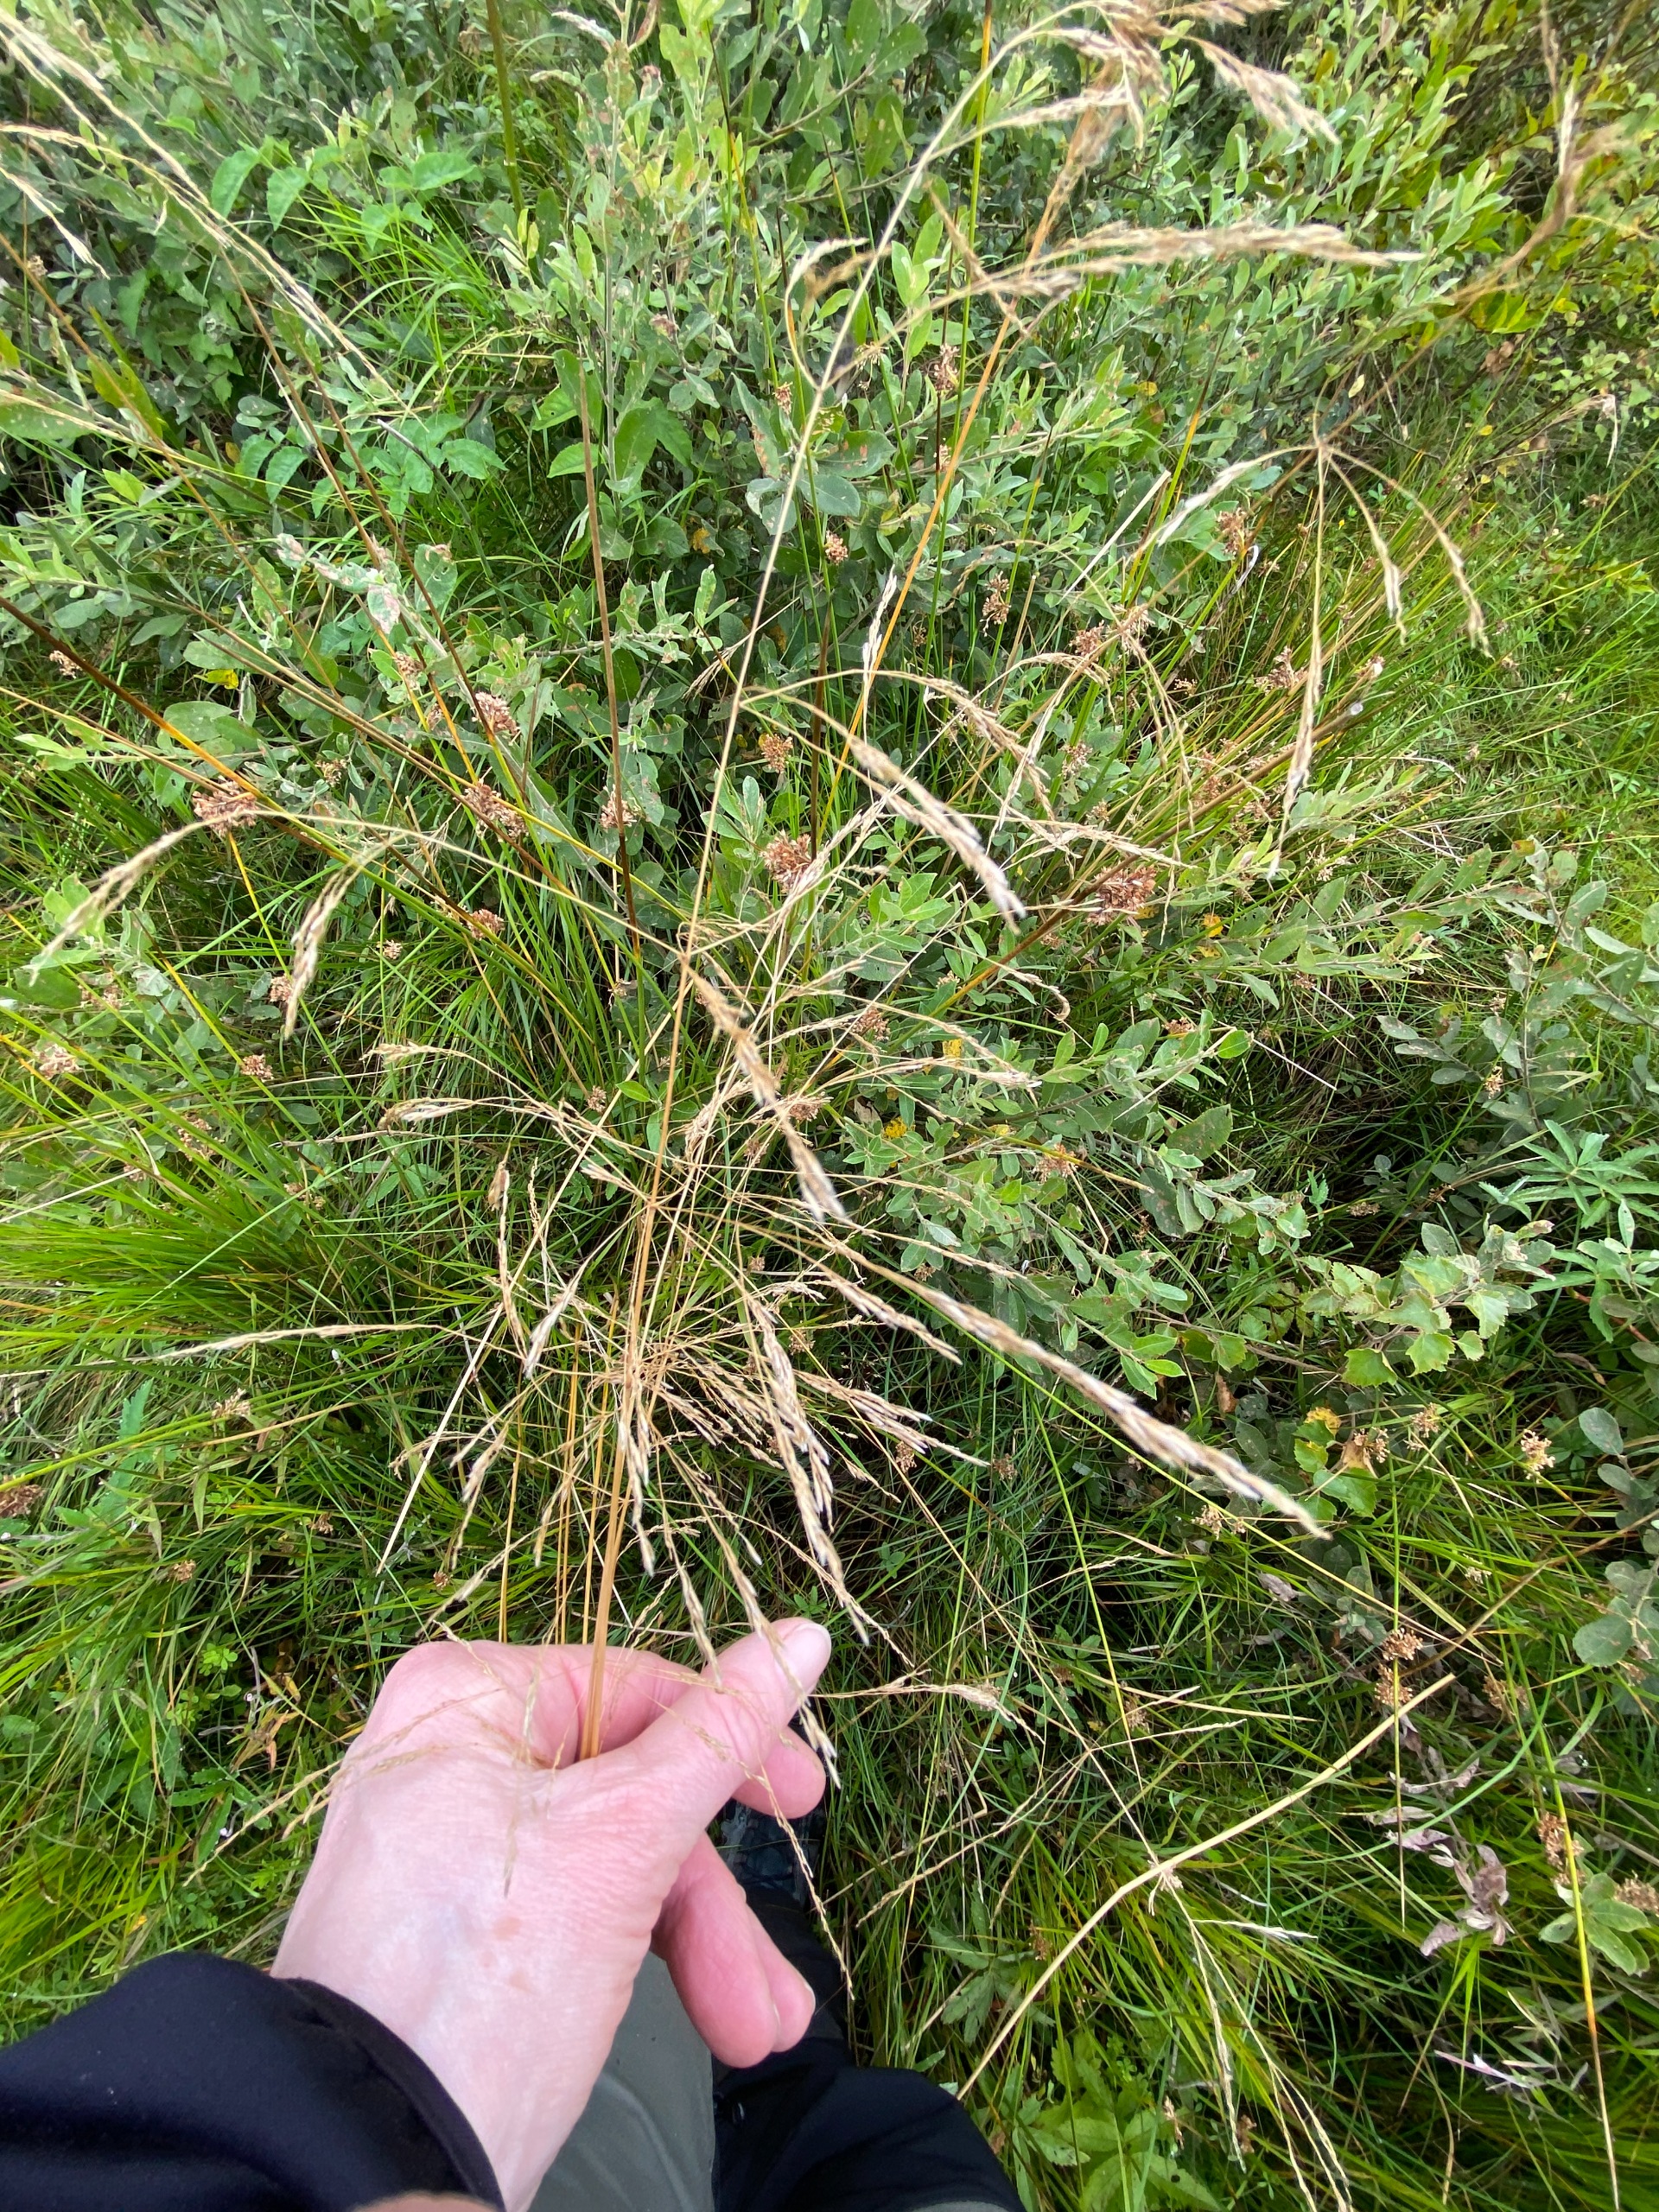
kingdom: Plantae
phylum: Tracheophyta
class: Liliopsida
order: Poales
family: Poaceae
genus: Deschampsia
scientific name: Deschampsia cespitosa
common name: Mose-bunke
